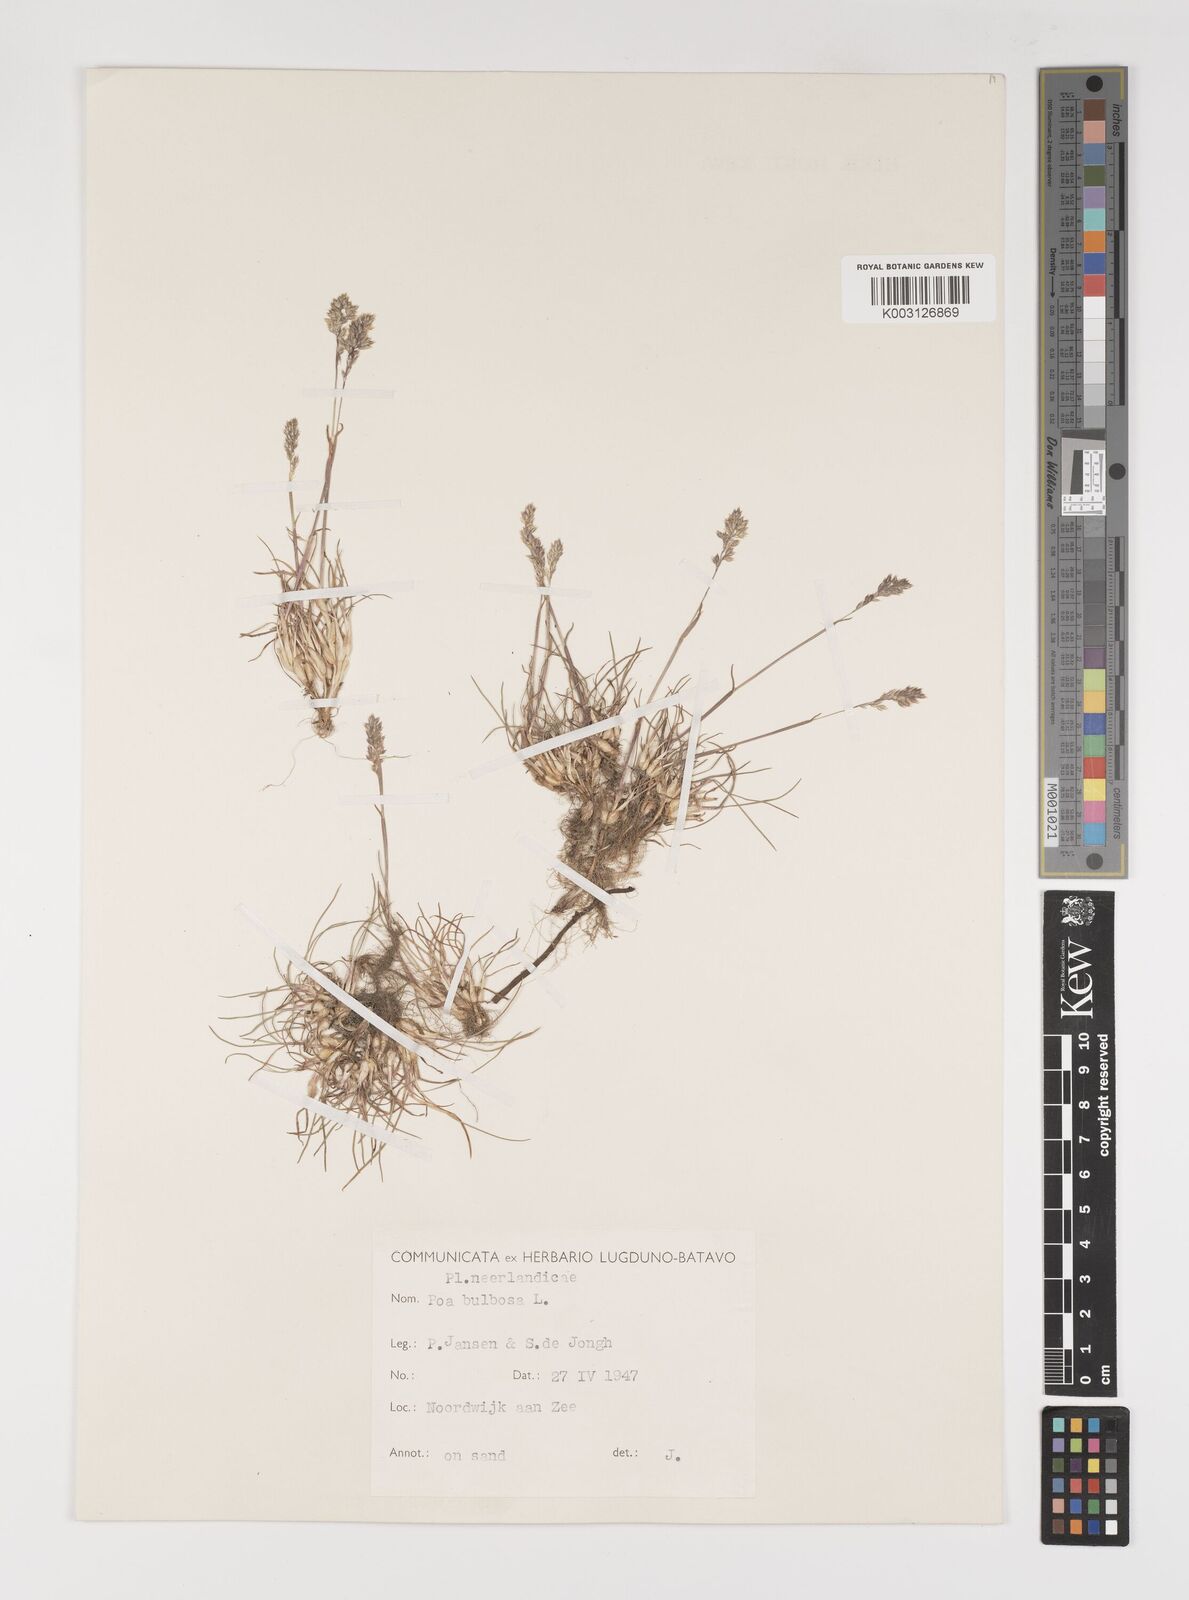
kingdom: Plantae
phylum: Tracheophyta
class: Liliopsida
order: Poales
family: Poaceae
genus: Poa
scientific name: Poa bulbosa
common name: Bulbous bluegrass
